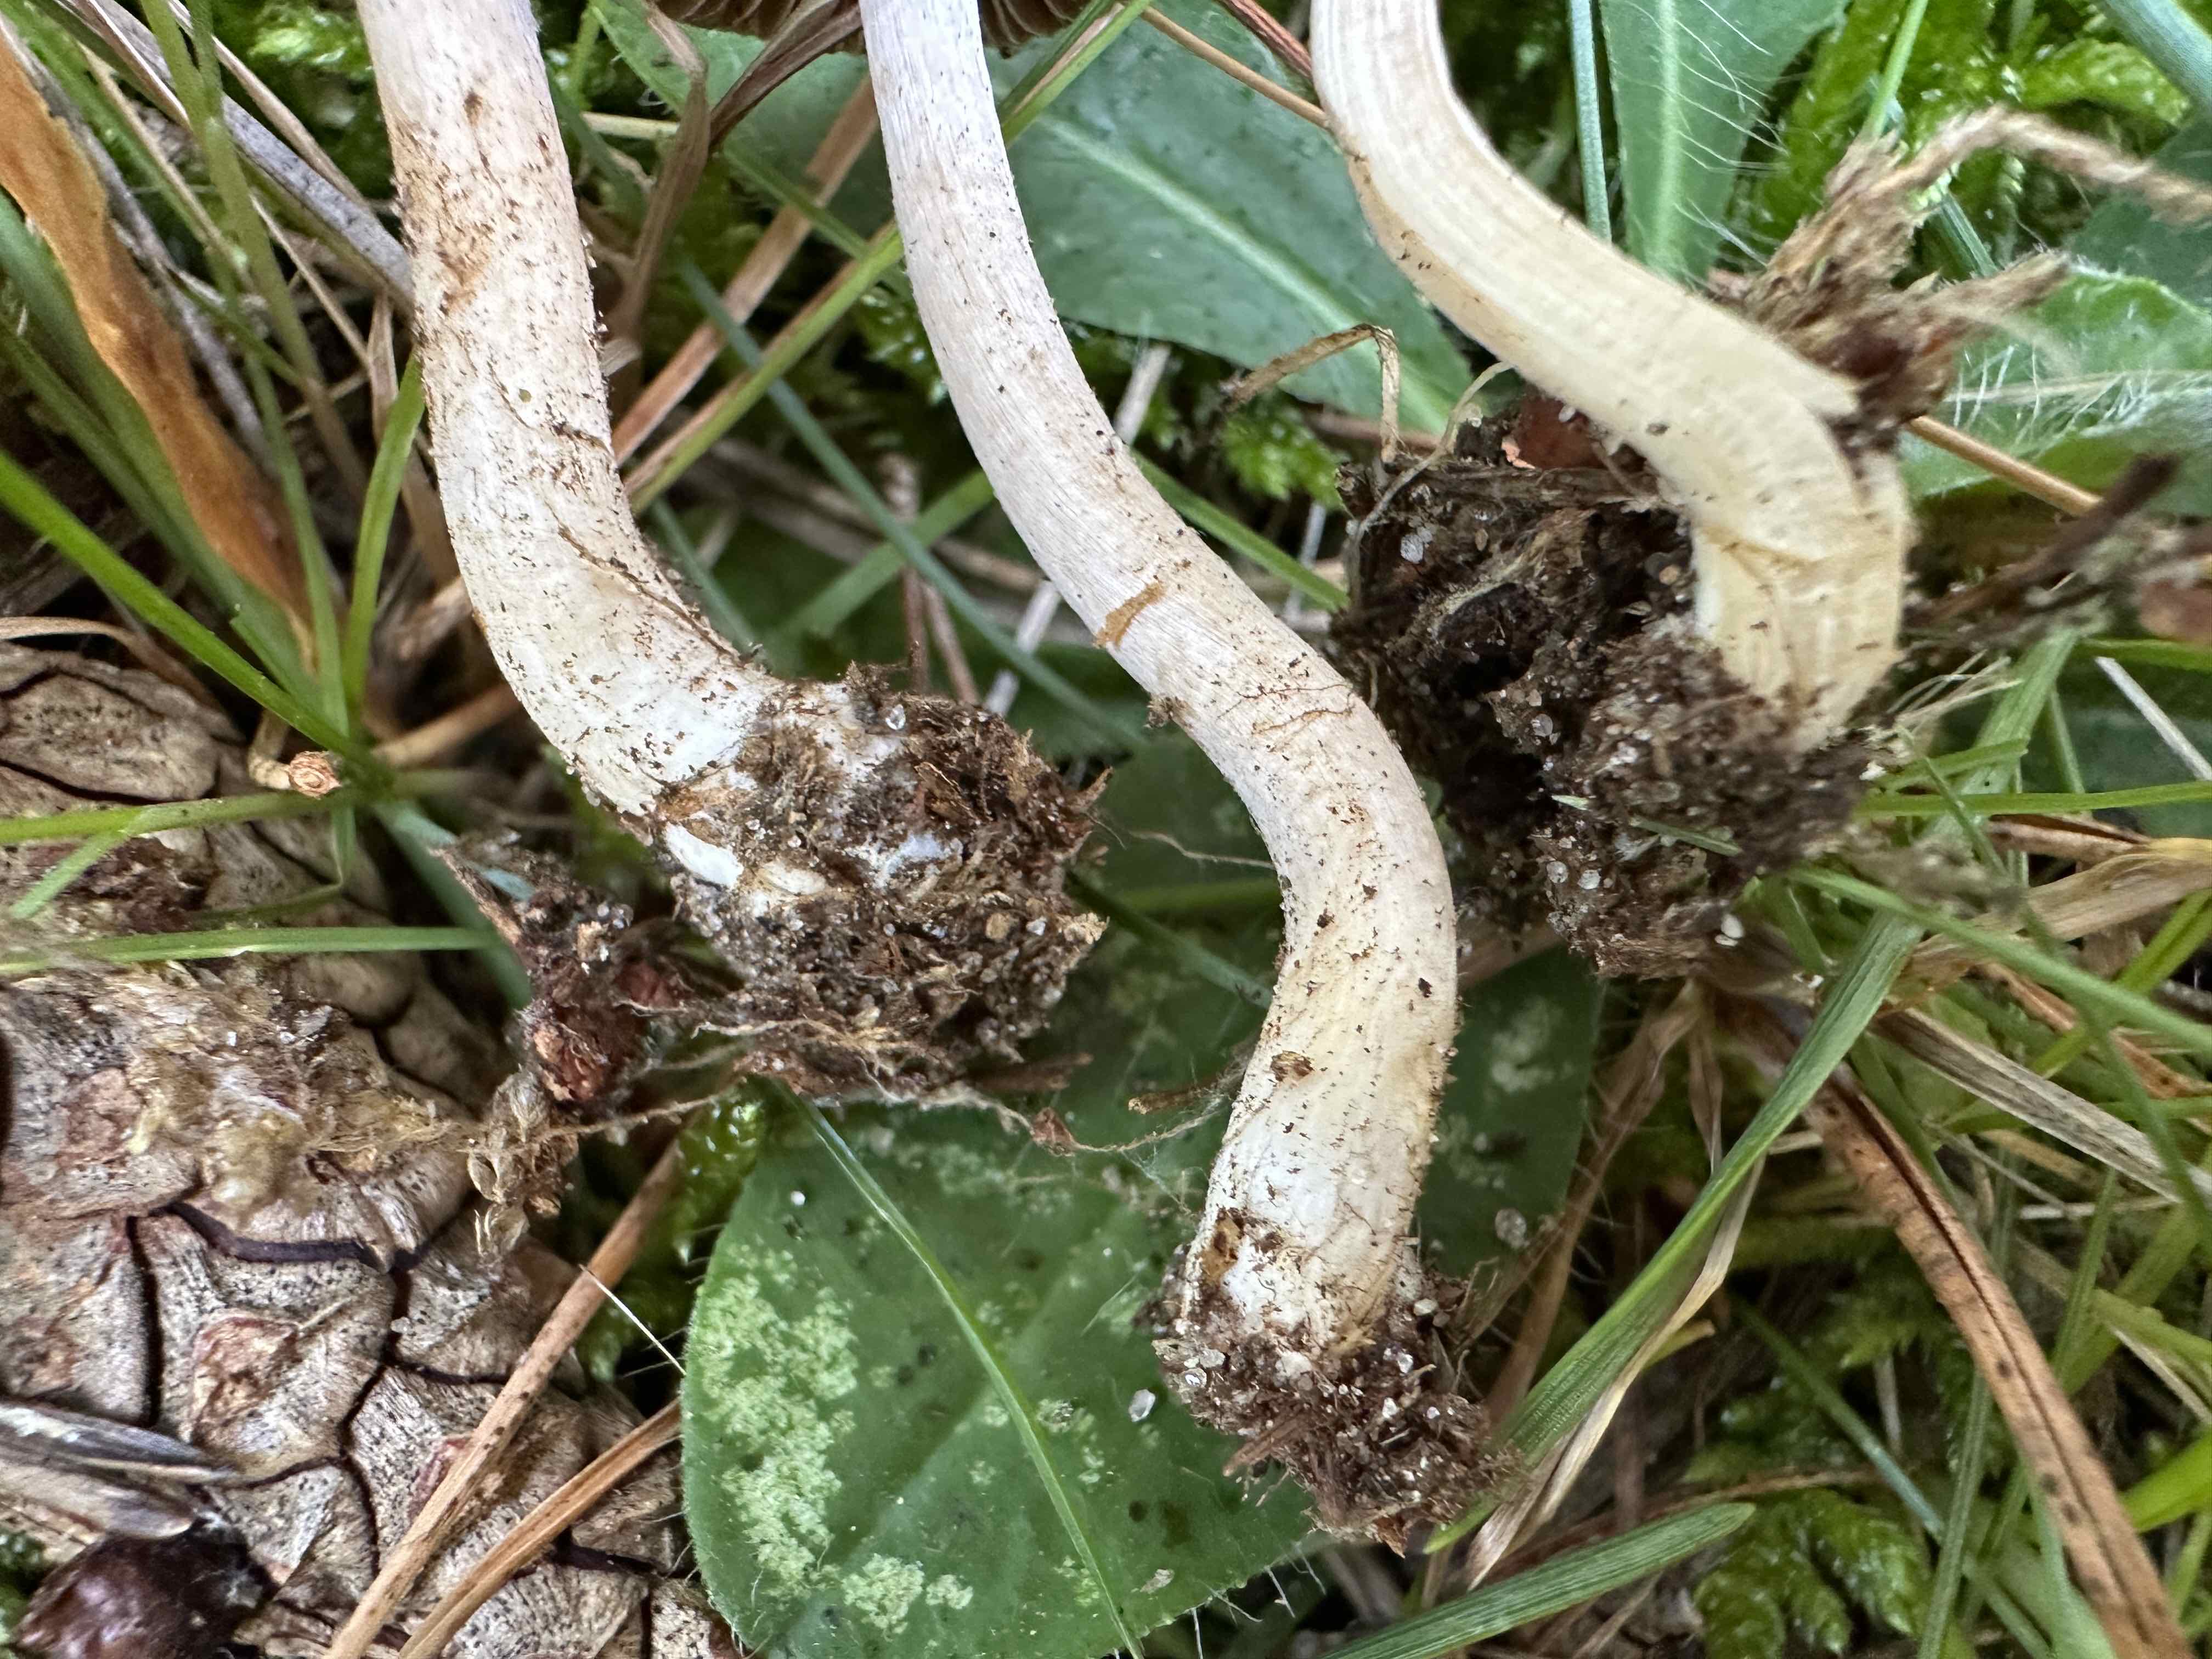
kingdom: Fungi
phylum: Basidiomycota
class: Agaricomycetes
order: Agaricales
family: Inocybaceae
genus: Inocybe
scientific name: Inocybe
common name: trævlhat
